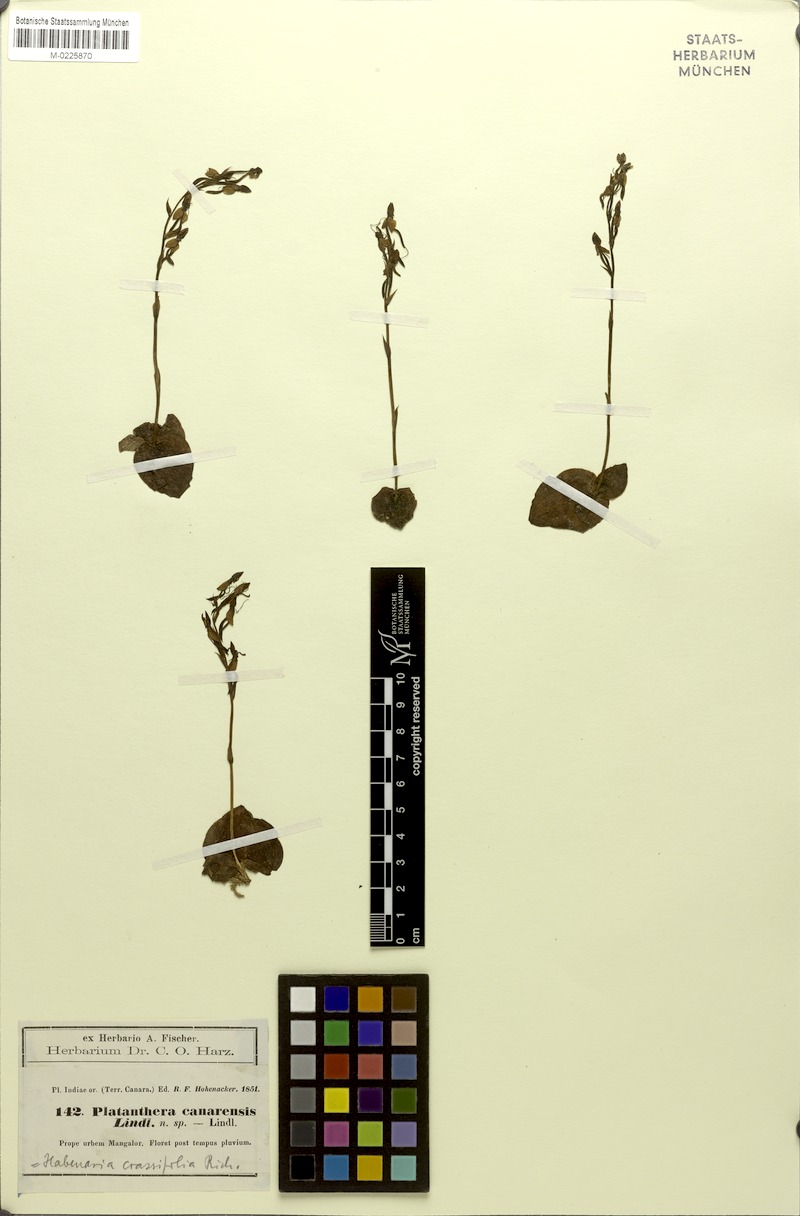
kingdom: Plantae
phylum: Tracheophyta
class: Liliopsida
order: Asparagales
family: Orchidaceae
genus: Habenaria
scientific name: Habenaria brachyphylla
